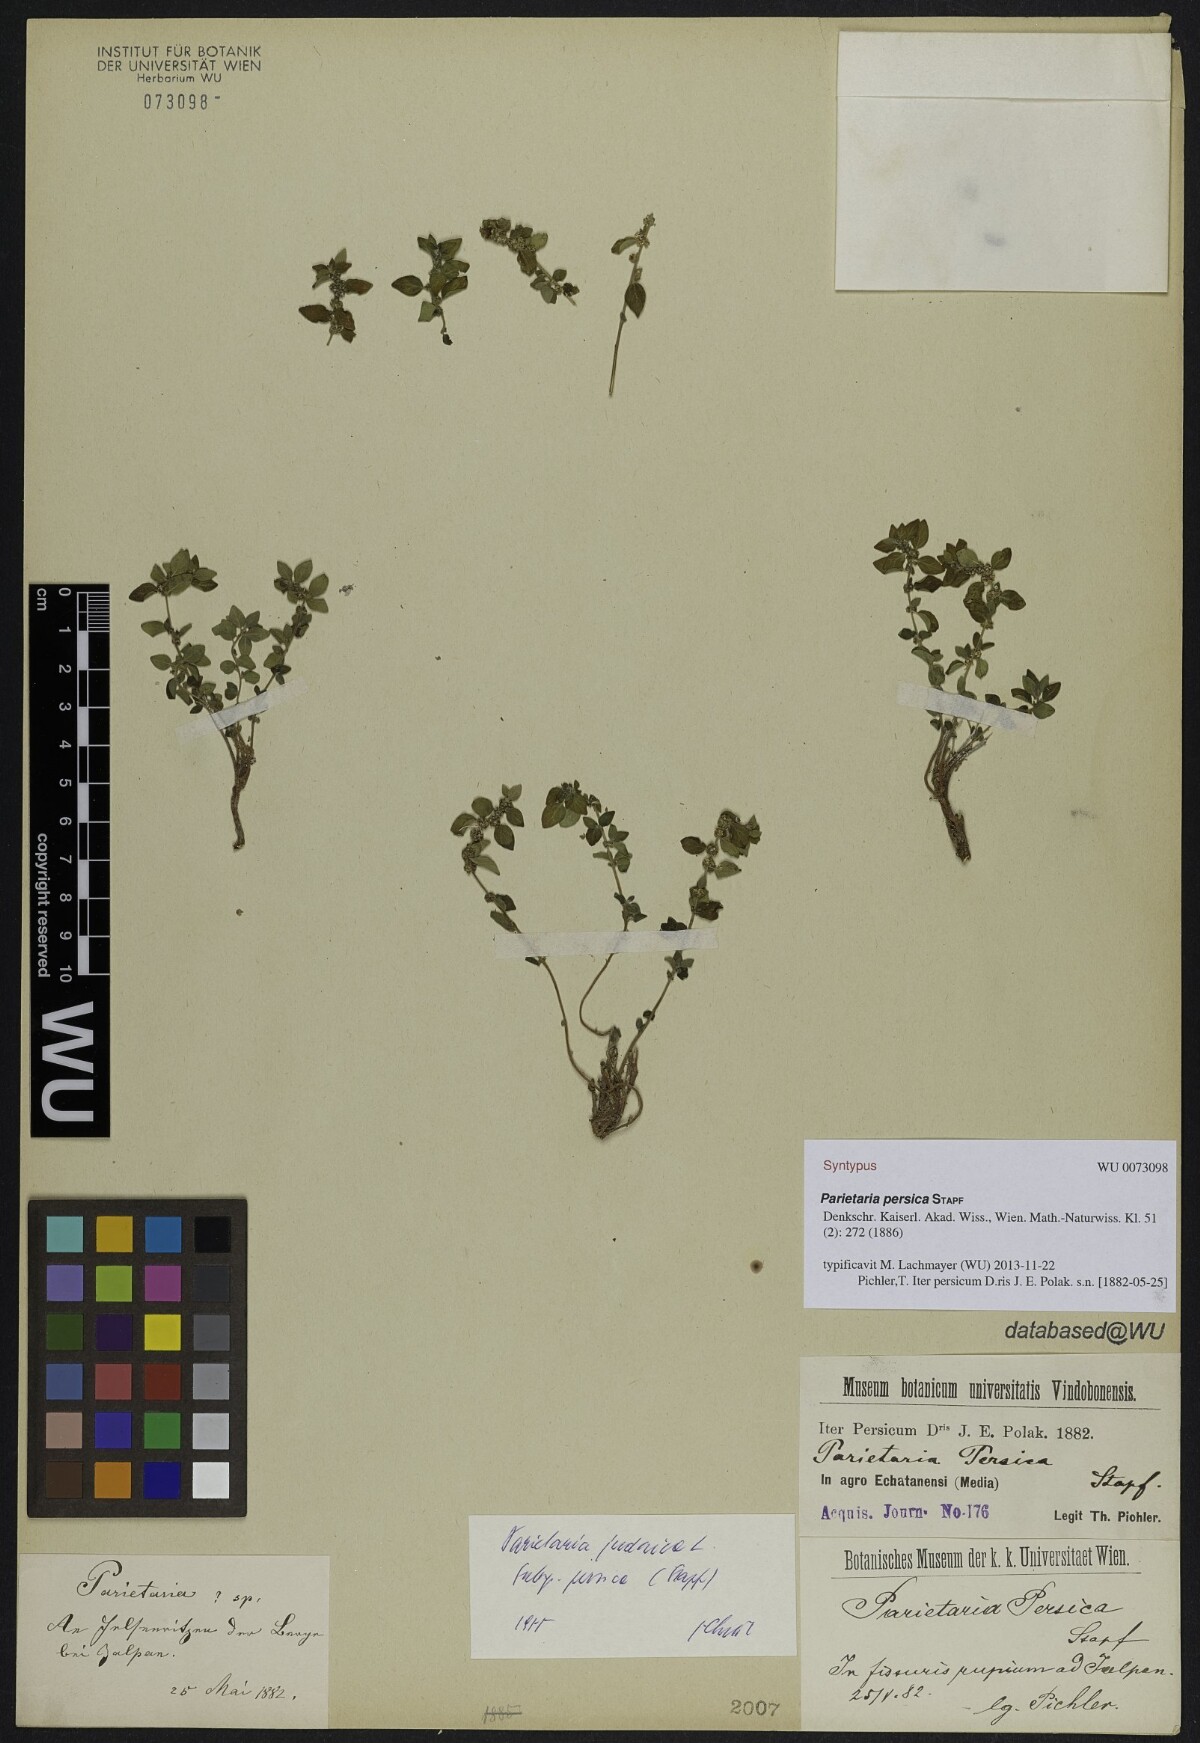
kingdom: Plantae
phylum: Tracheophyta
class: Magnoliopsida
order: Rosales
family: Urticaceae
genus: Parietaria
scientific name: Parietaria judaica
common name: Pellitory-of-the-wall
